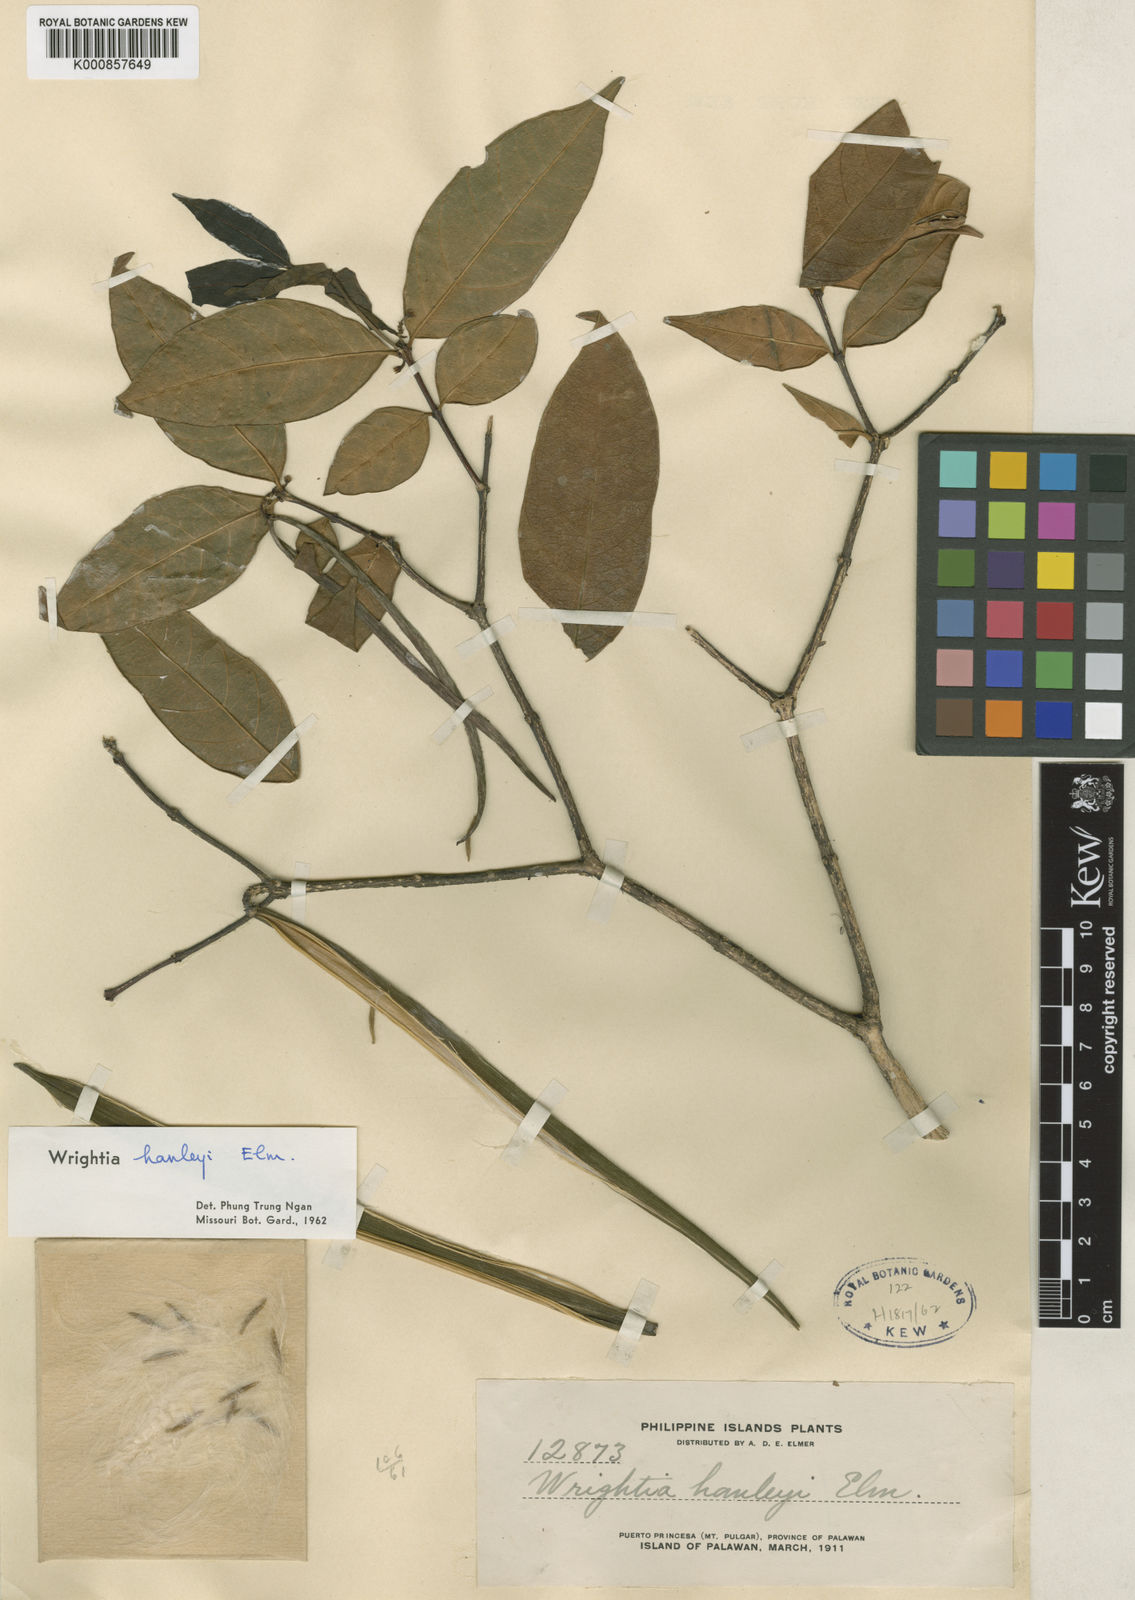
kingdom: Plantae
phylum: Tracheophyta
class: Magnoliopsida
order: Gentianales
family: Apocynaceae
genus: Wrightia
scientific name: Wrightia hanleyi
